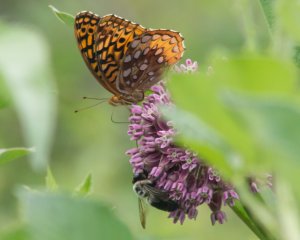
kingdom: Animalia
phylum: Arthropoda
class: Insecta
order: Lepidoptera
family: Nymphalidae
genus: Speyeria
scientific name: Speyeria cybele
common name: Great Spangled Fritillary
